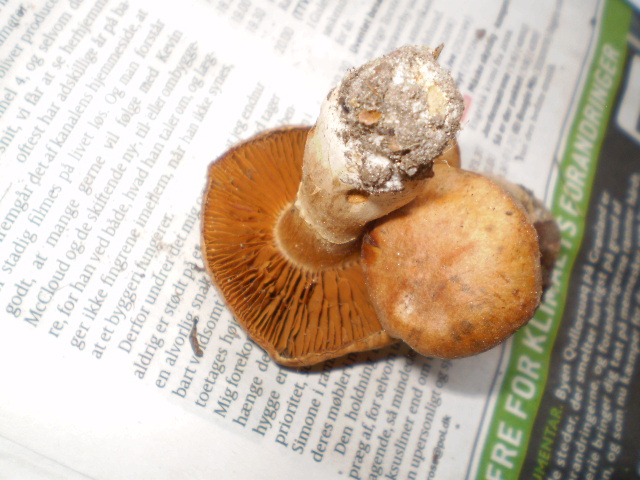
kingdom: Fungi
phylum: Basidiomycota
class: Agaricomycetes
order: Agaricales
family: Cortinariaceae
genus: Cortinarius
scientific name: Cortinarius torvus
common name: champignonagtig slørhat
